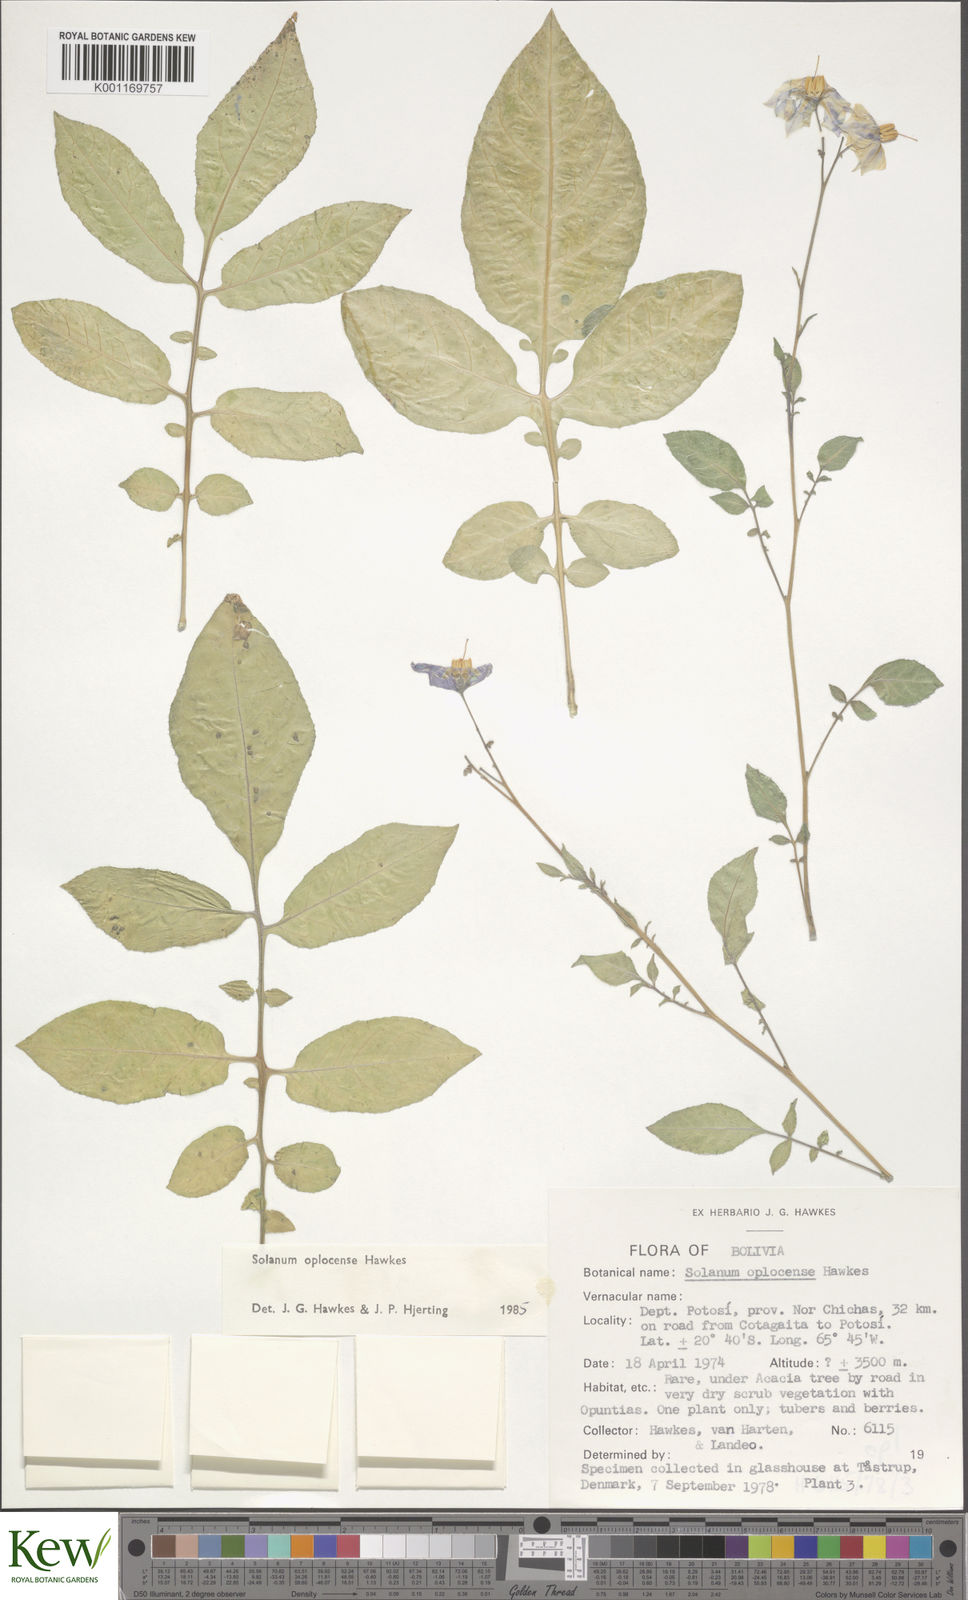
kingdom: Plantae
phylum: Tracheophyta
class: Magnoliopsida
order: Solanales
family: Solanaceae
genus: Solanum
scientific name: Solanum brevicaule
